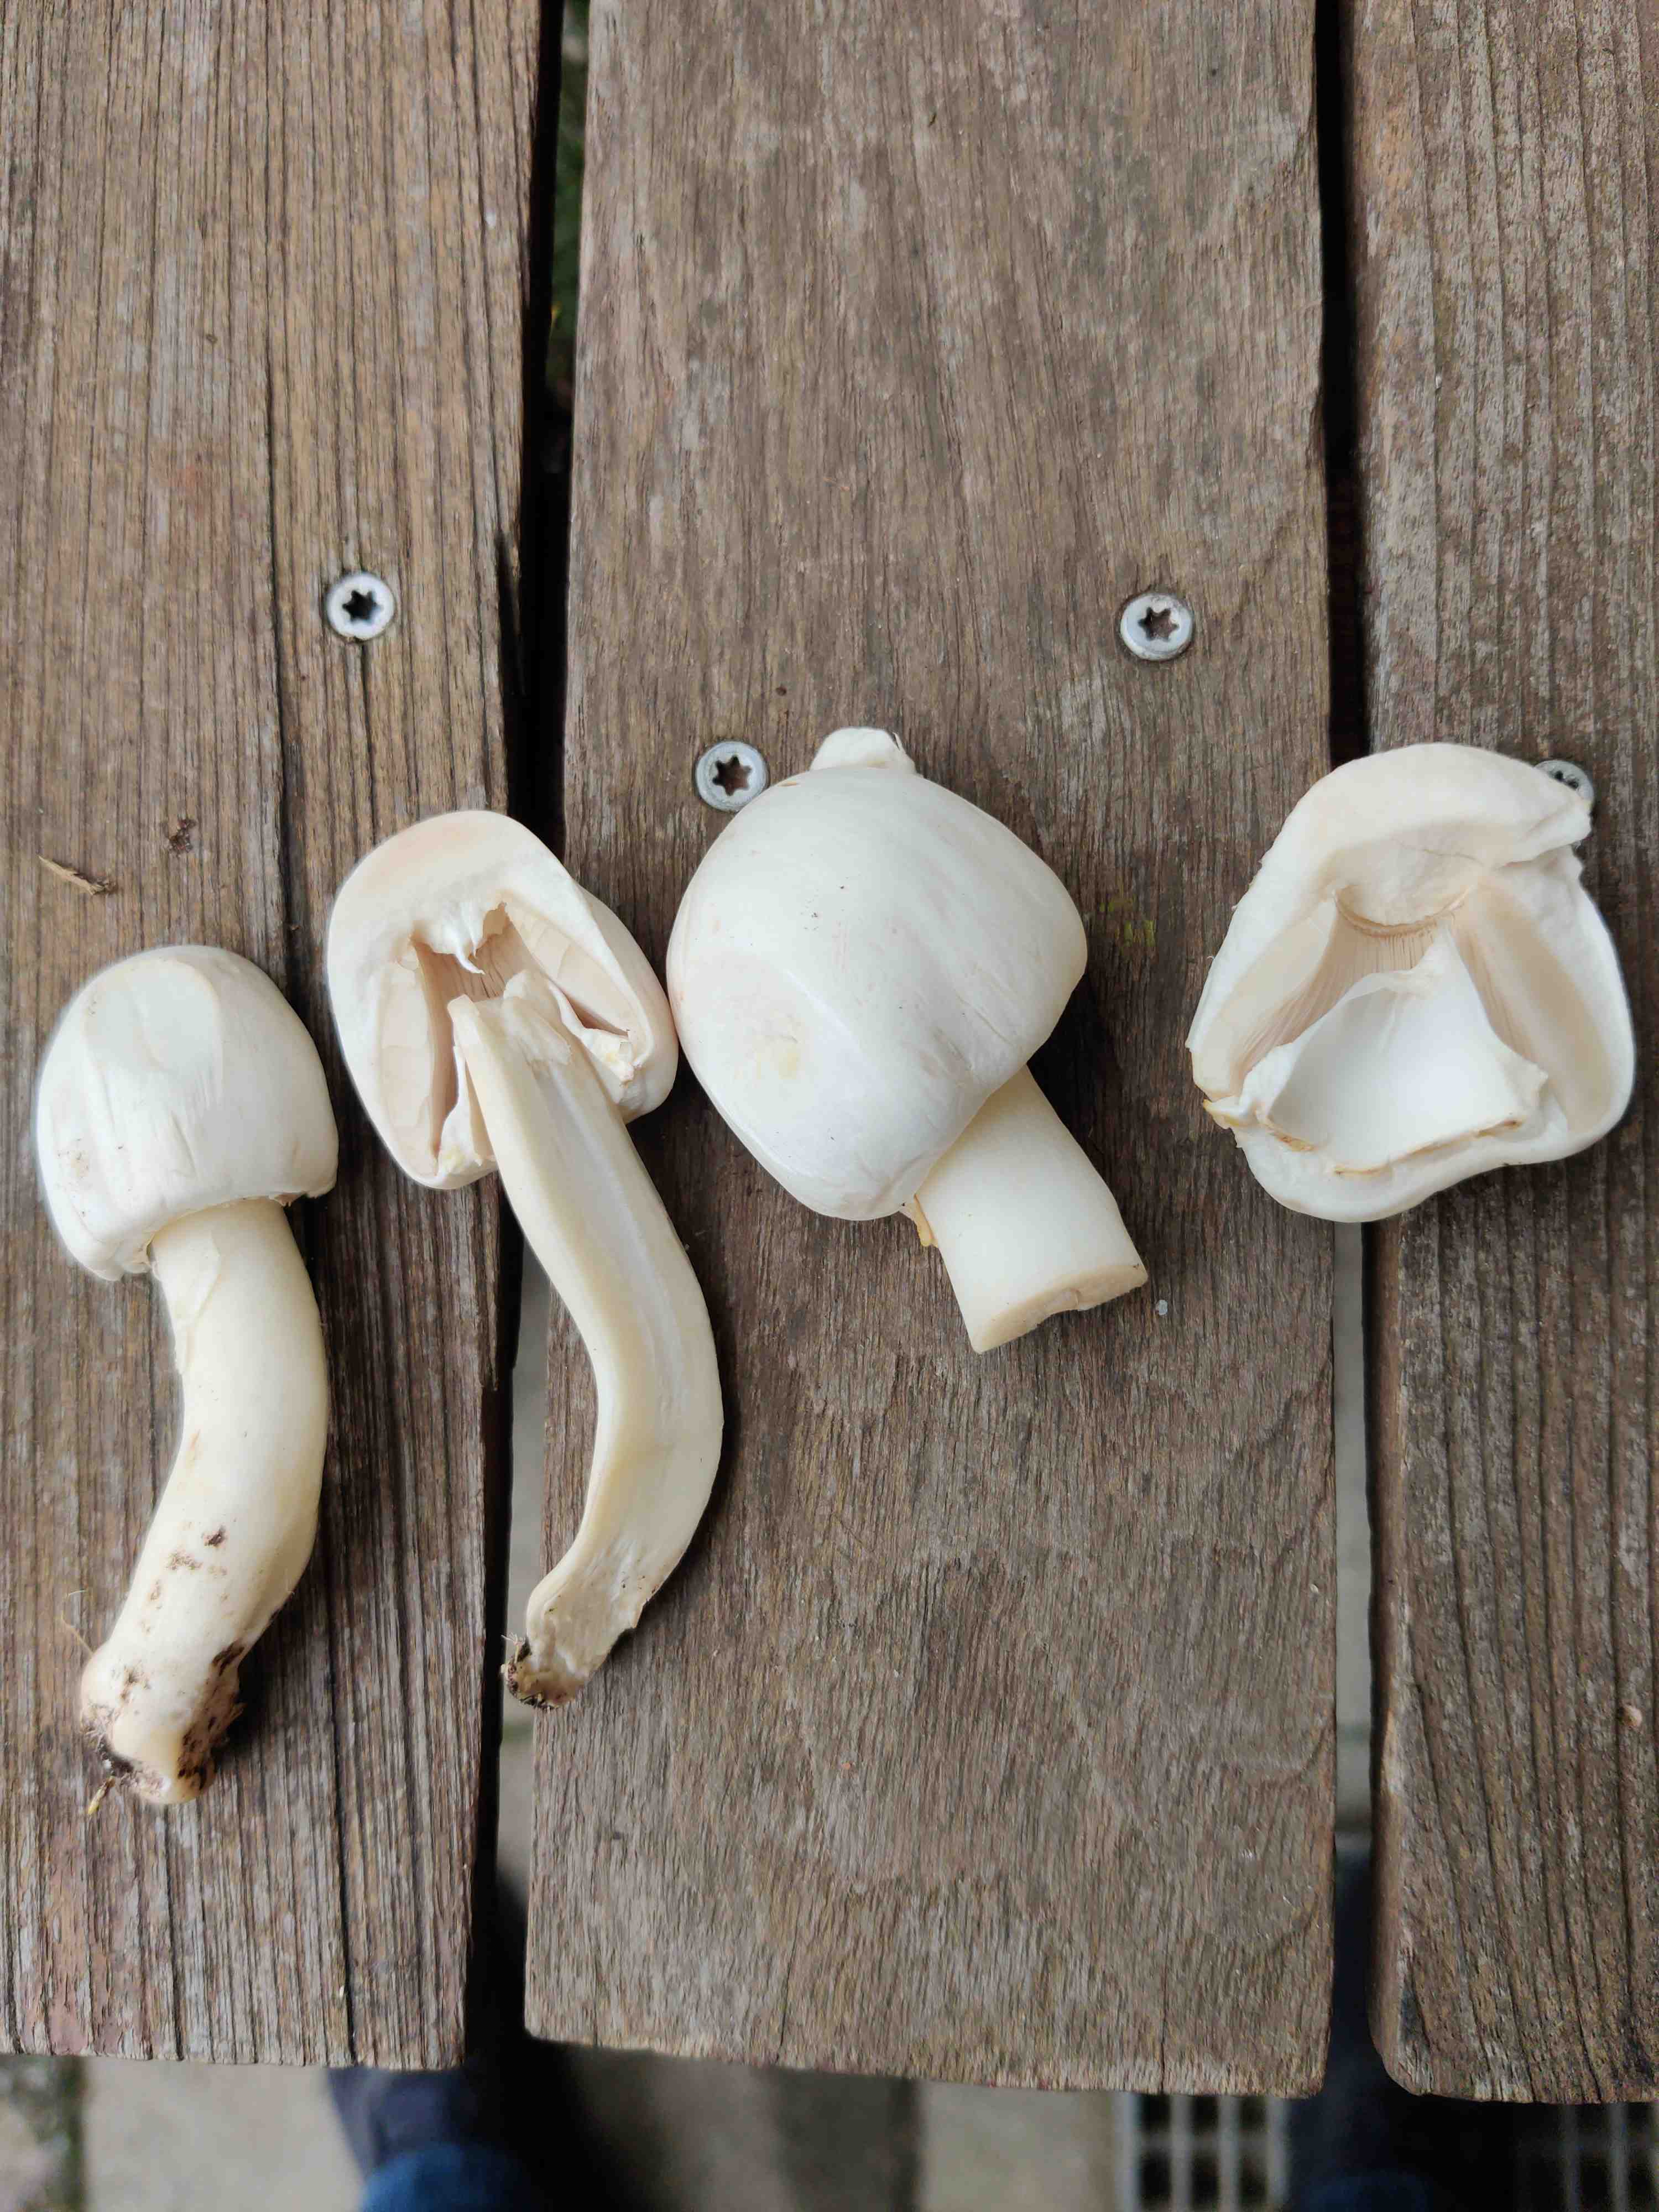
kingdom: Fungi
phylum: Basidiomycota
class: Agaricomycetes
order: Agaricales
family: Agaricaceae
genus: Agaricus
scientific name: Agaricus
